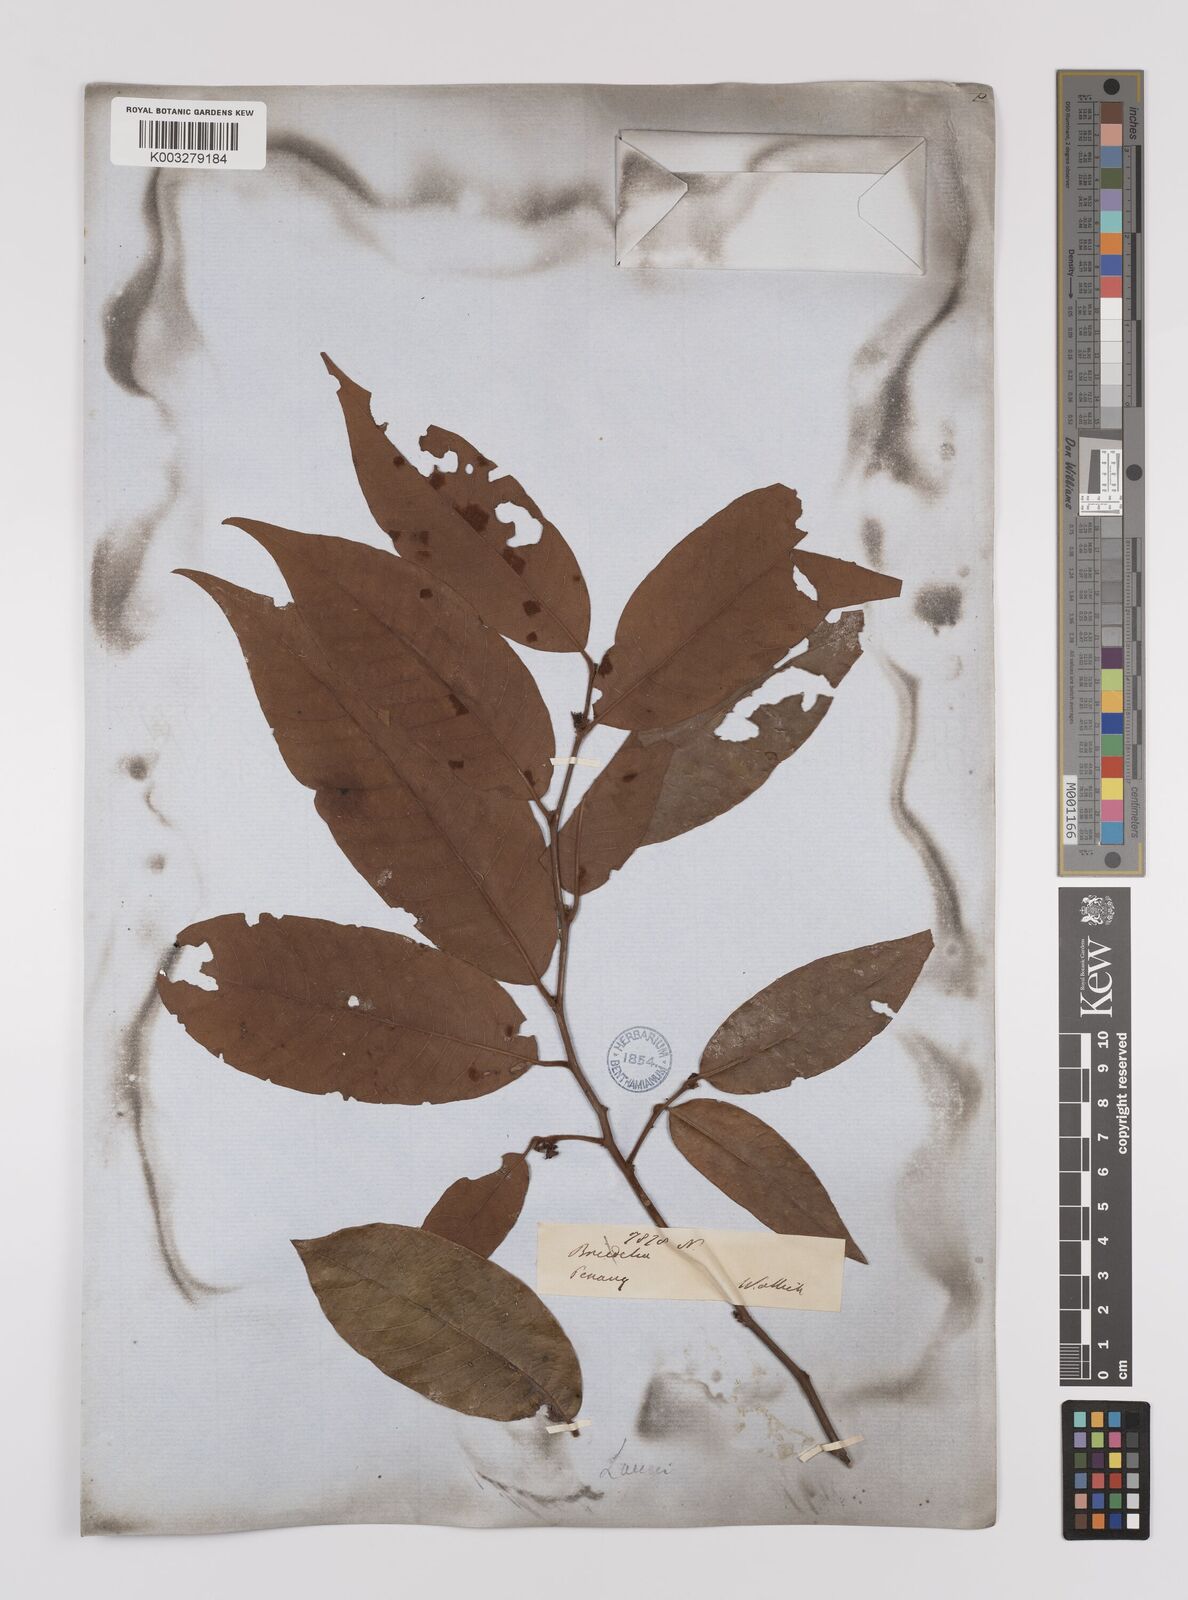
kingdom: Plantae
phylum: Tracheophyta
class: Magnoliopsida
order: Laurales
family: Lauraceae
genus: Litsea
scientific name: Litsea umbellata
